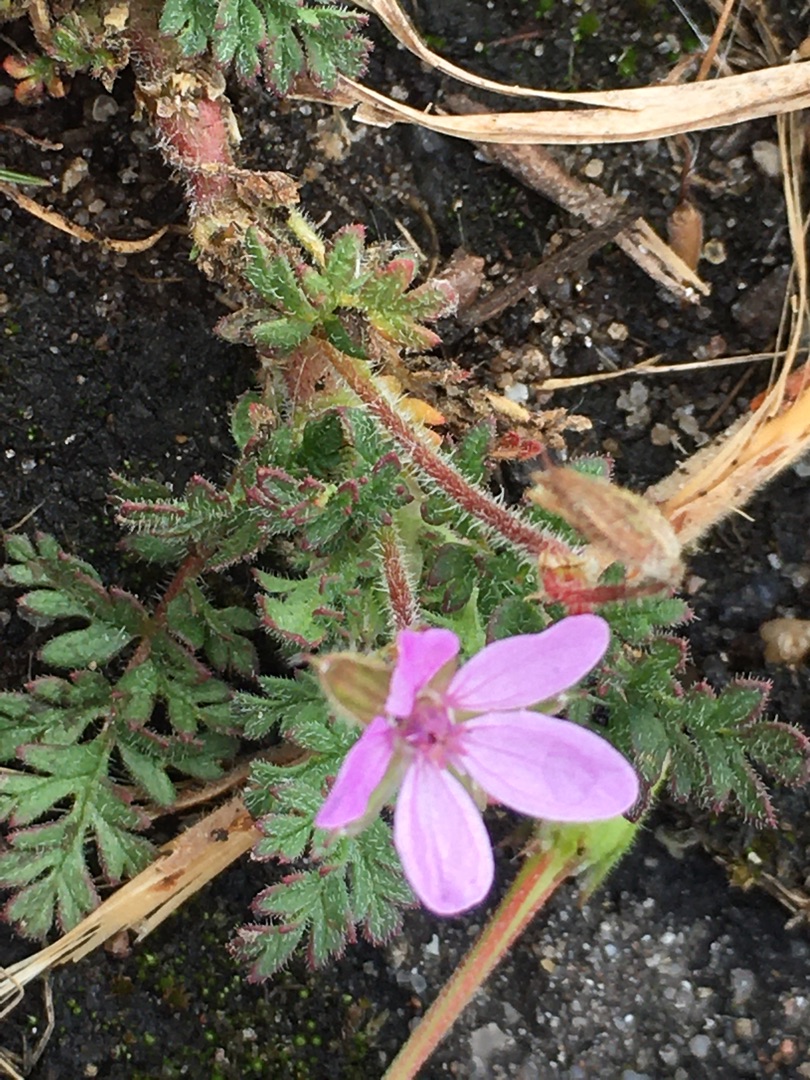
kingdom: Plantae
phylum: Tracheophyta
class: Magnoliopsida
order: Geraniales
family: Geraniaceae
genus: Erodium
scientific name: Erodium cicutarium
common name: Hejrenæb
